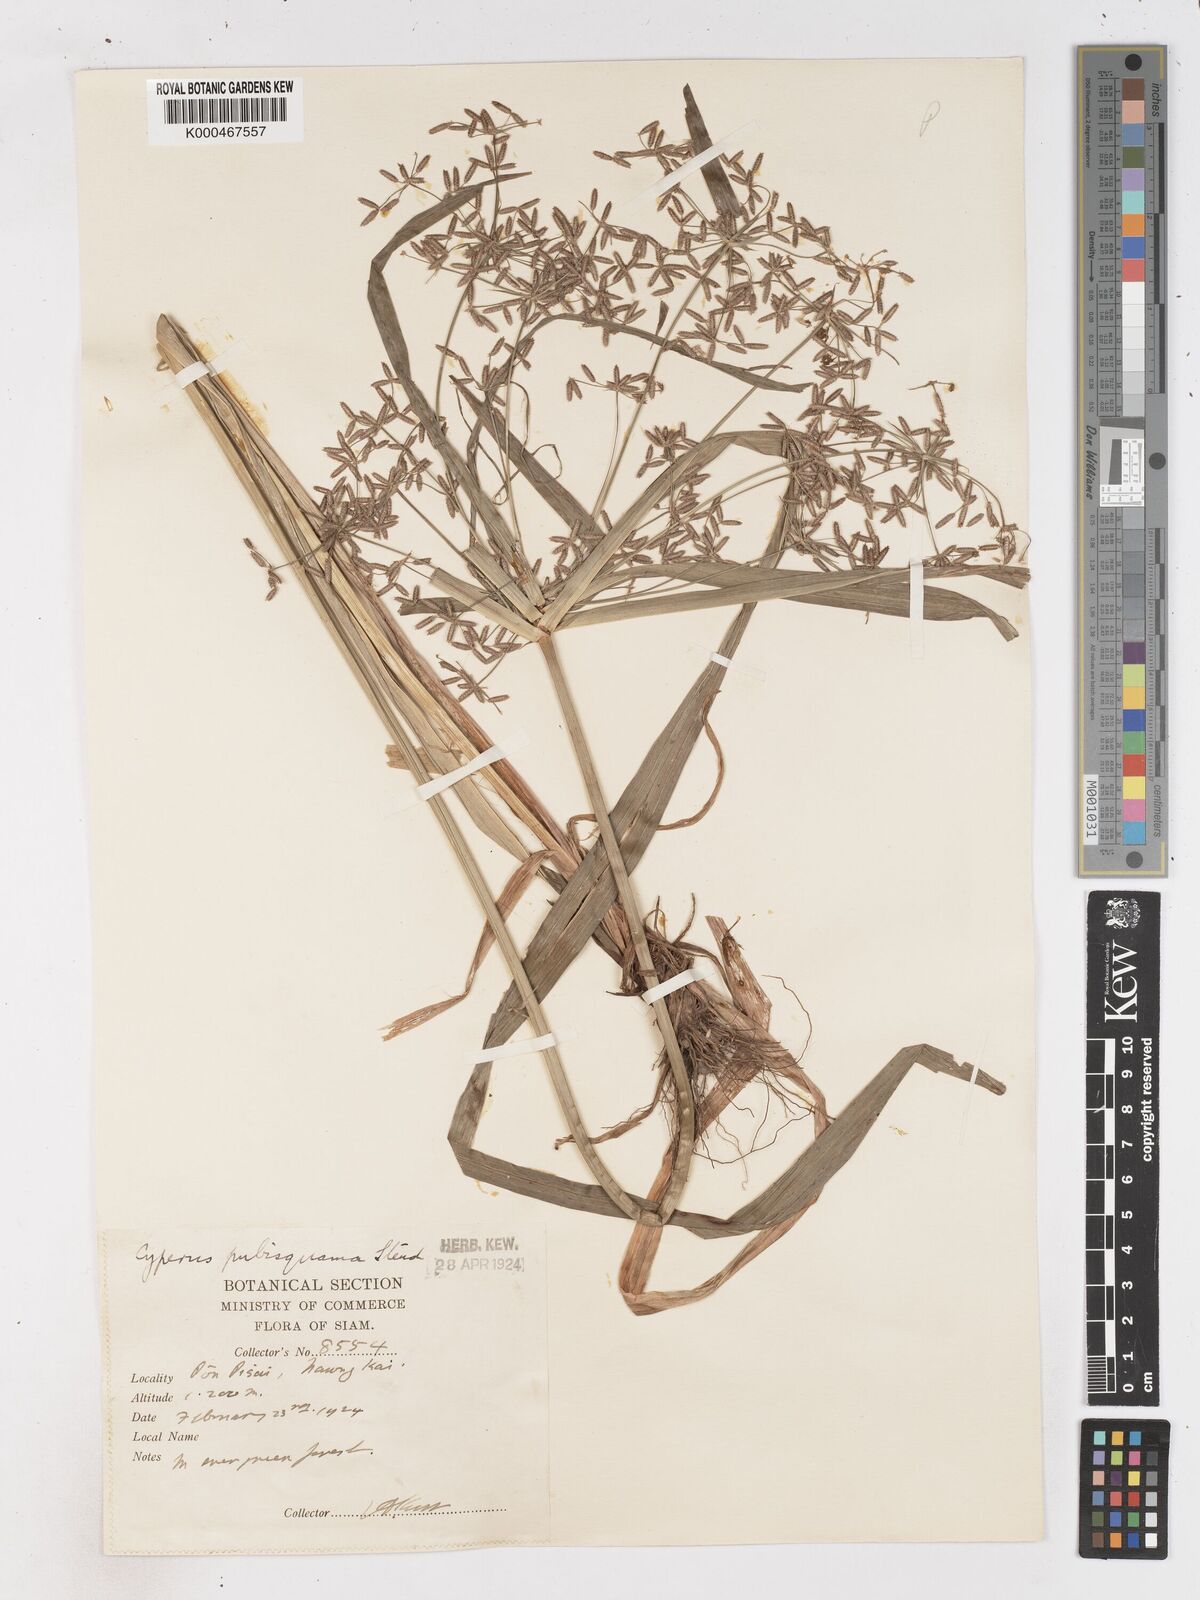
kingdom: Plantae
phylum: Tracheophyta
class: Liliopsida
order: Poales
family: Cyperaceae
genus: Cyperus
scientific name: Cyperus diffusus
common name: Dwarf umbrella grass
